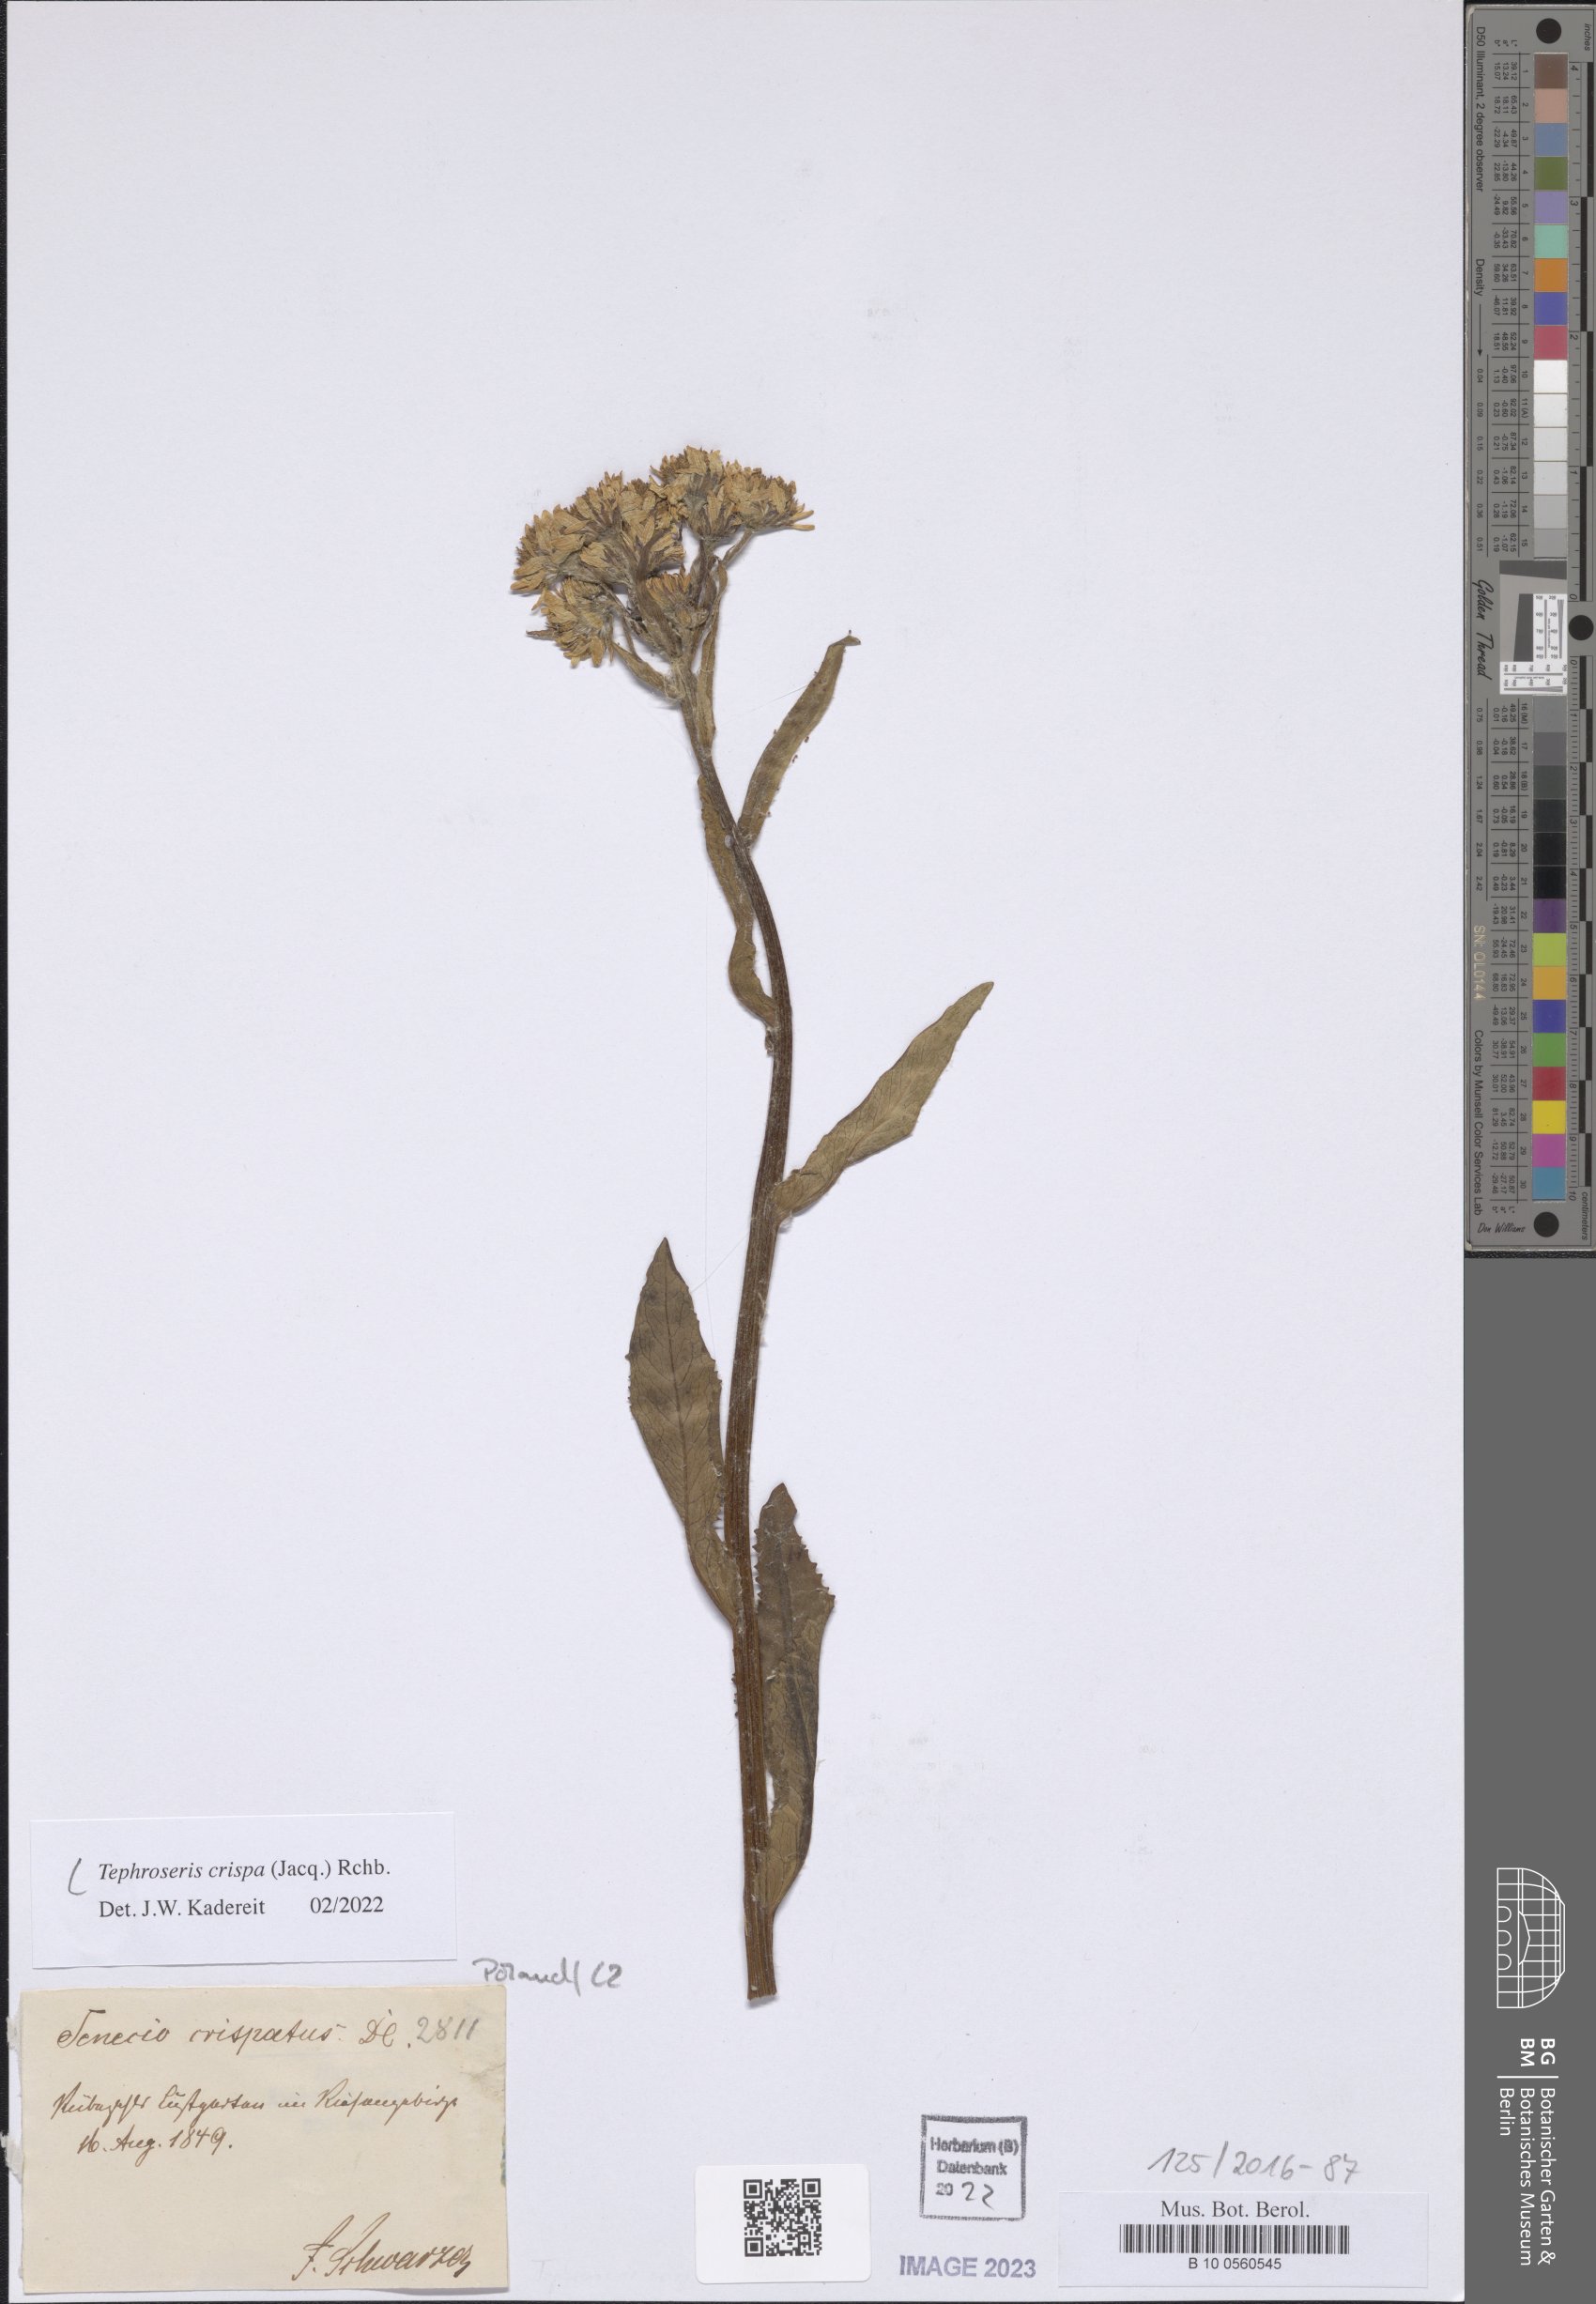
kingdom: Plantae
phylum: Tracheophyta
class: Magnoliopsida
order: Asterales
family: Asteraceae
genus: Tephroseris
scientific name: Tephroseris crispa
